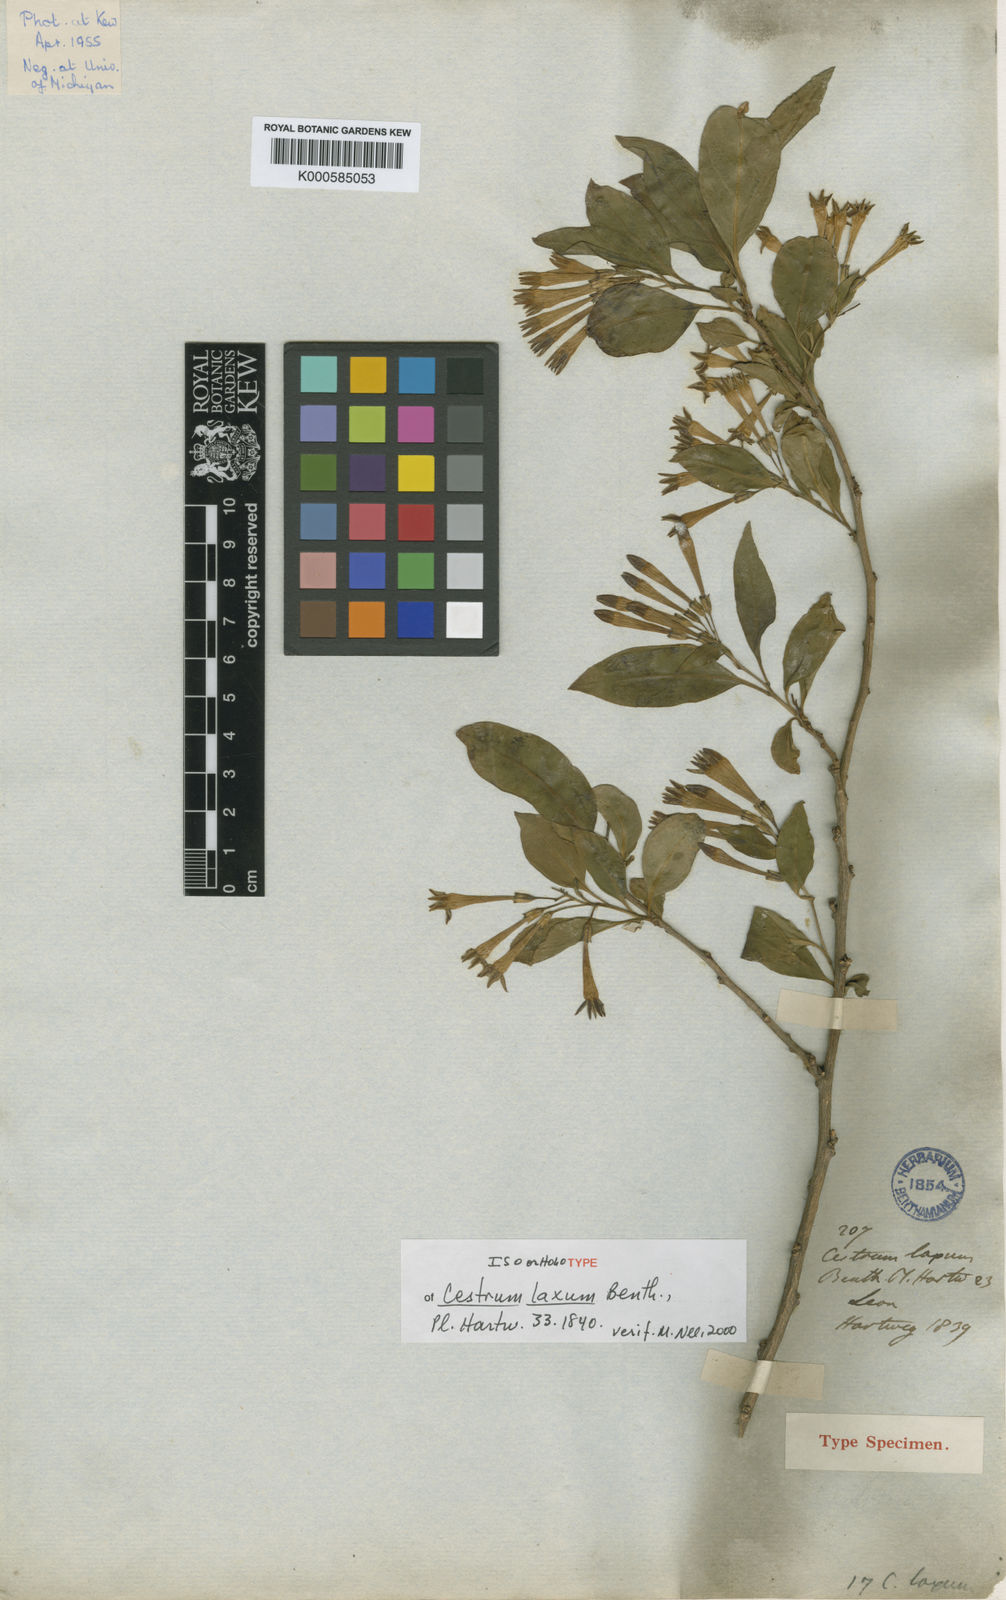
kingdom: Plantae
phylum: Tracheophyta
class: Magnoliopsida
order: Solanales
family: Solanaceae
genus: Cestrum
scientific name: Cestrum aurantiacum
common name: Orange cestrum
